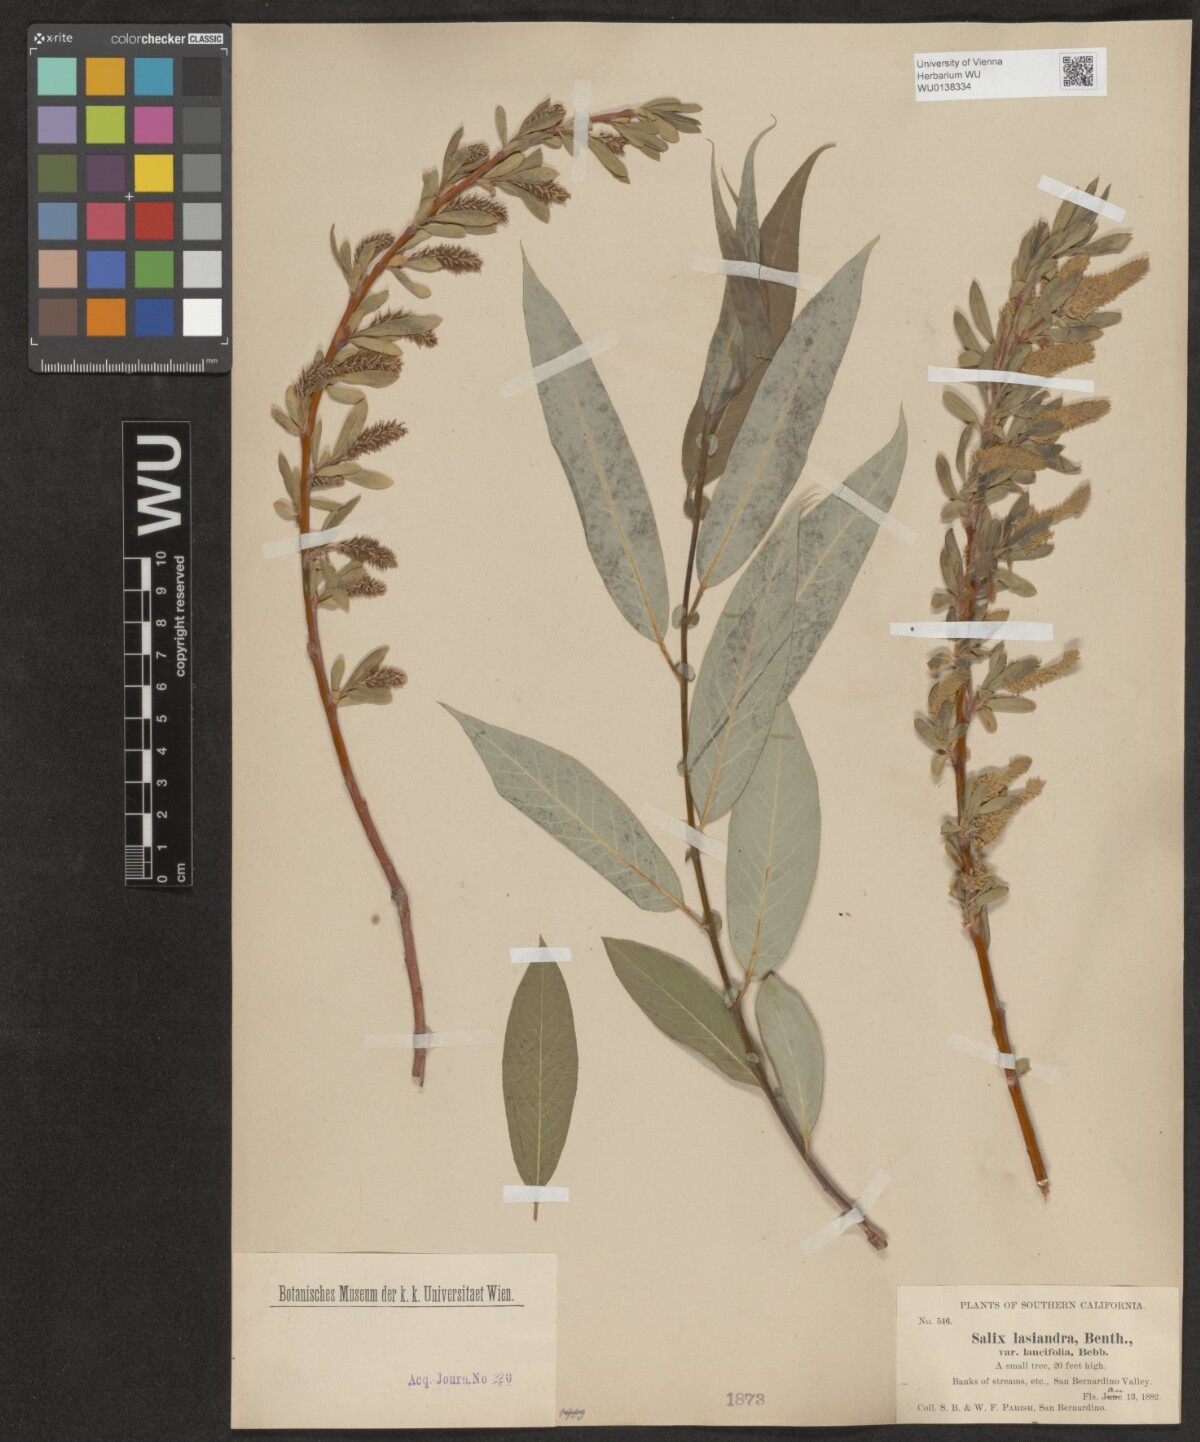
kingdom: Plantae
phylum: Tracheophyta
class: Magnoliopsida
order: Malpighiales
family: Salicaceae
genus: Salix
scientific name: Salix lucida
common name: Shining willow
